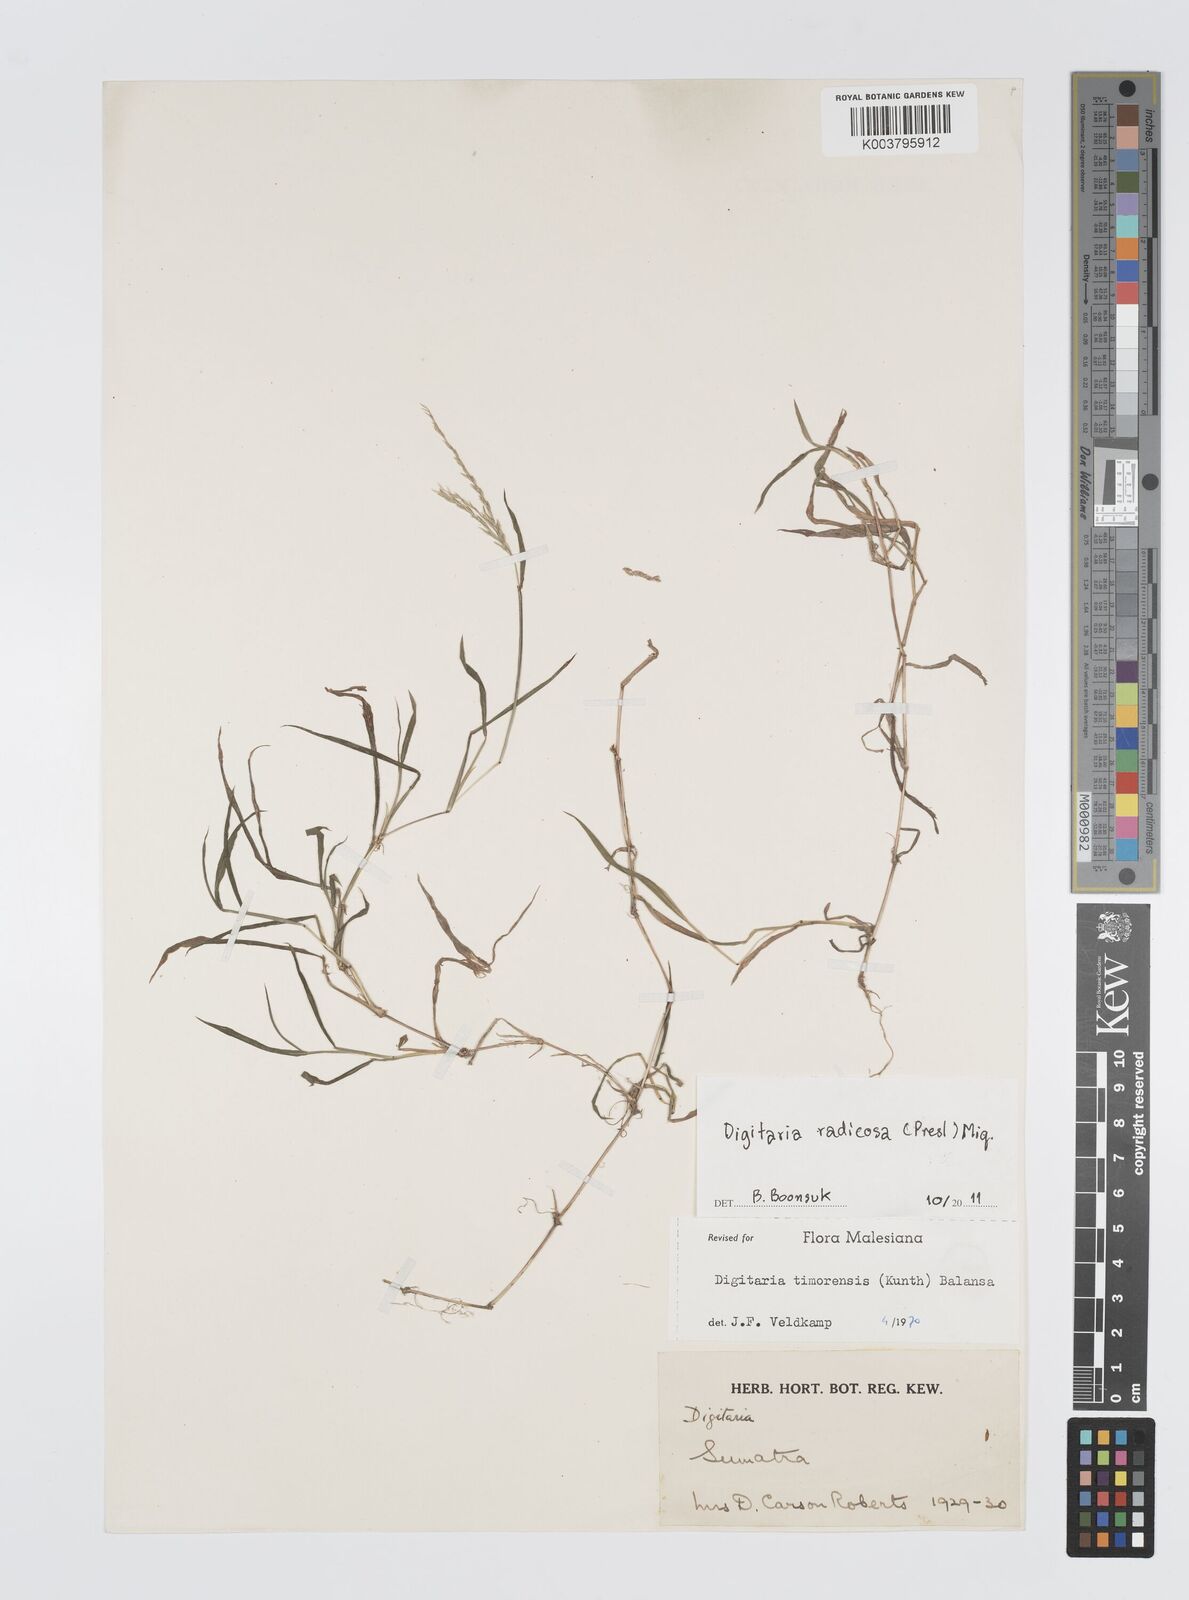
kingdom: Plantae
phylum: Tracheophyta
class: Liliopsida
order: Poales
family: Poaceae
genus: Digitaria
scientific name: Digitaria radicosa
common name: Trailing crabgrass
